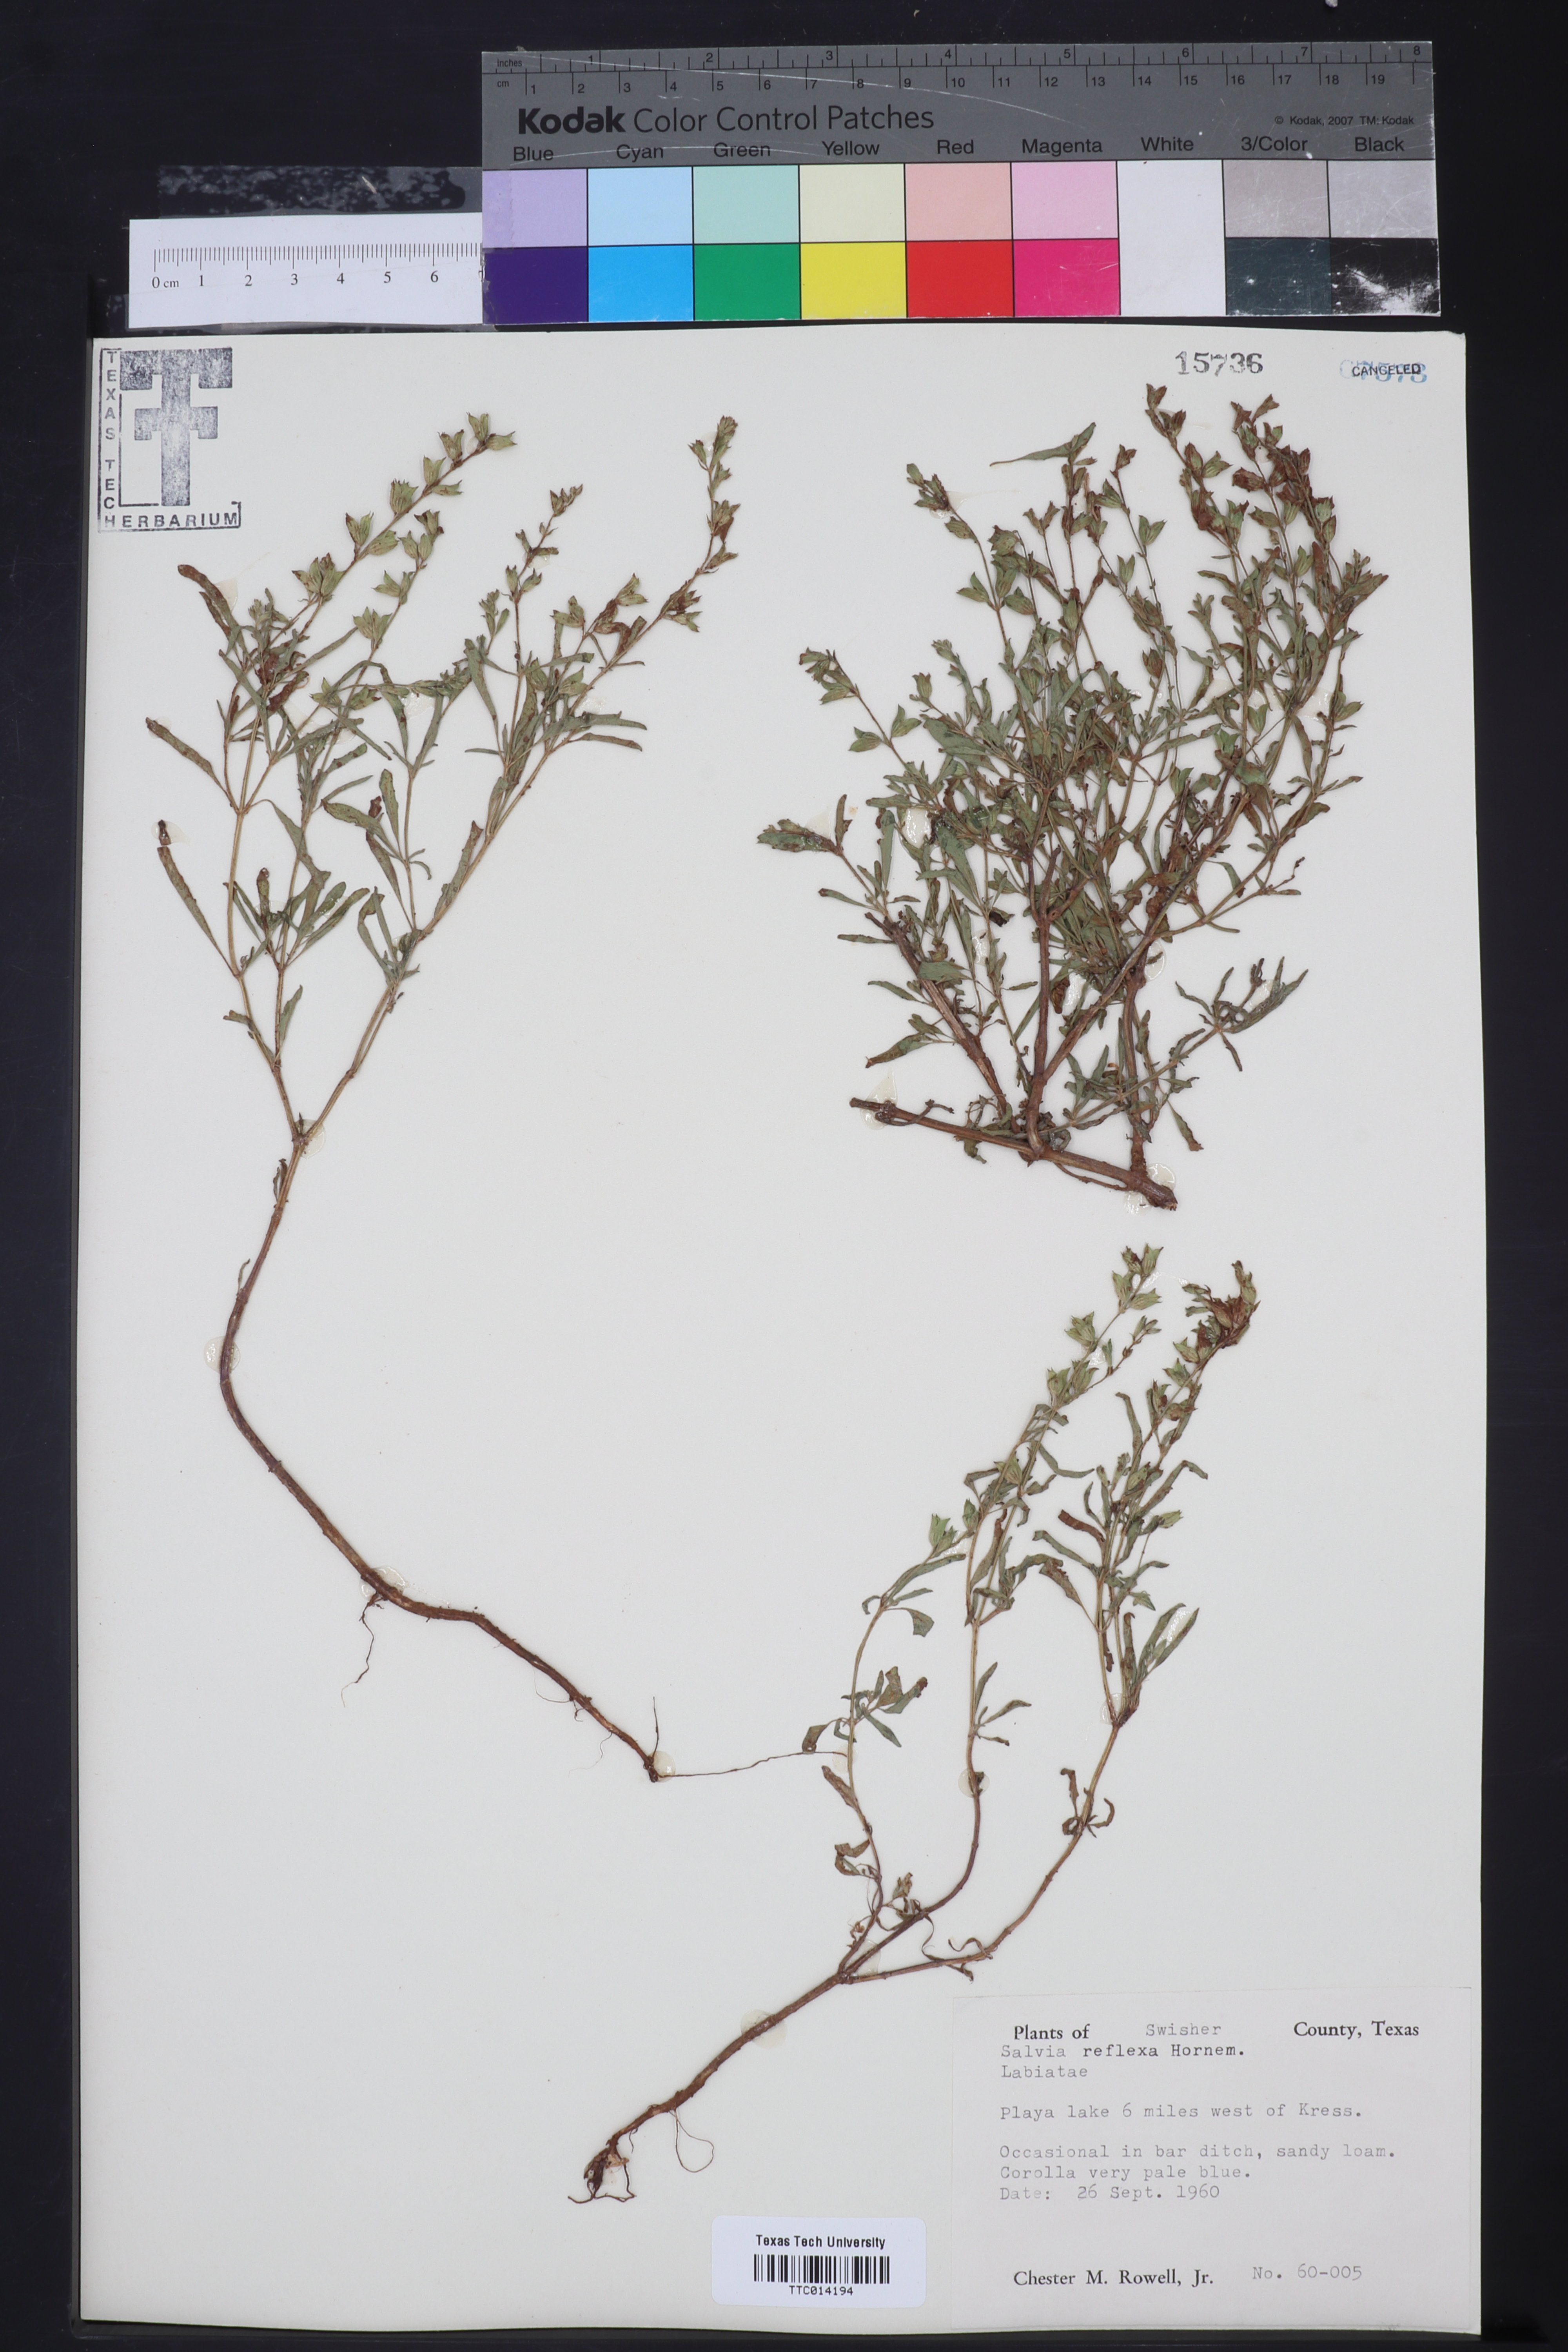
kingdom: Plantae
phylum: Tracheophyta
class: Magnoliopsida
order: Lamiales
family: Lamiaceae
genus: Salvia
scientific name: Salvia reflexa
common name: Mintweed
